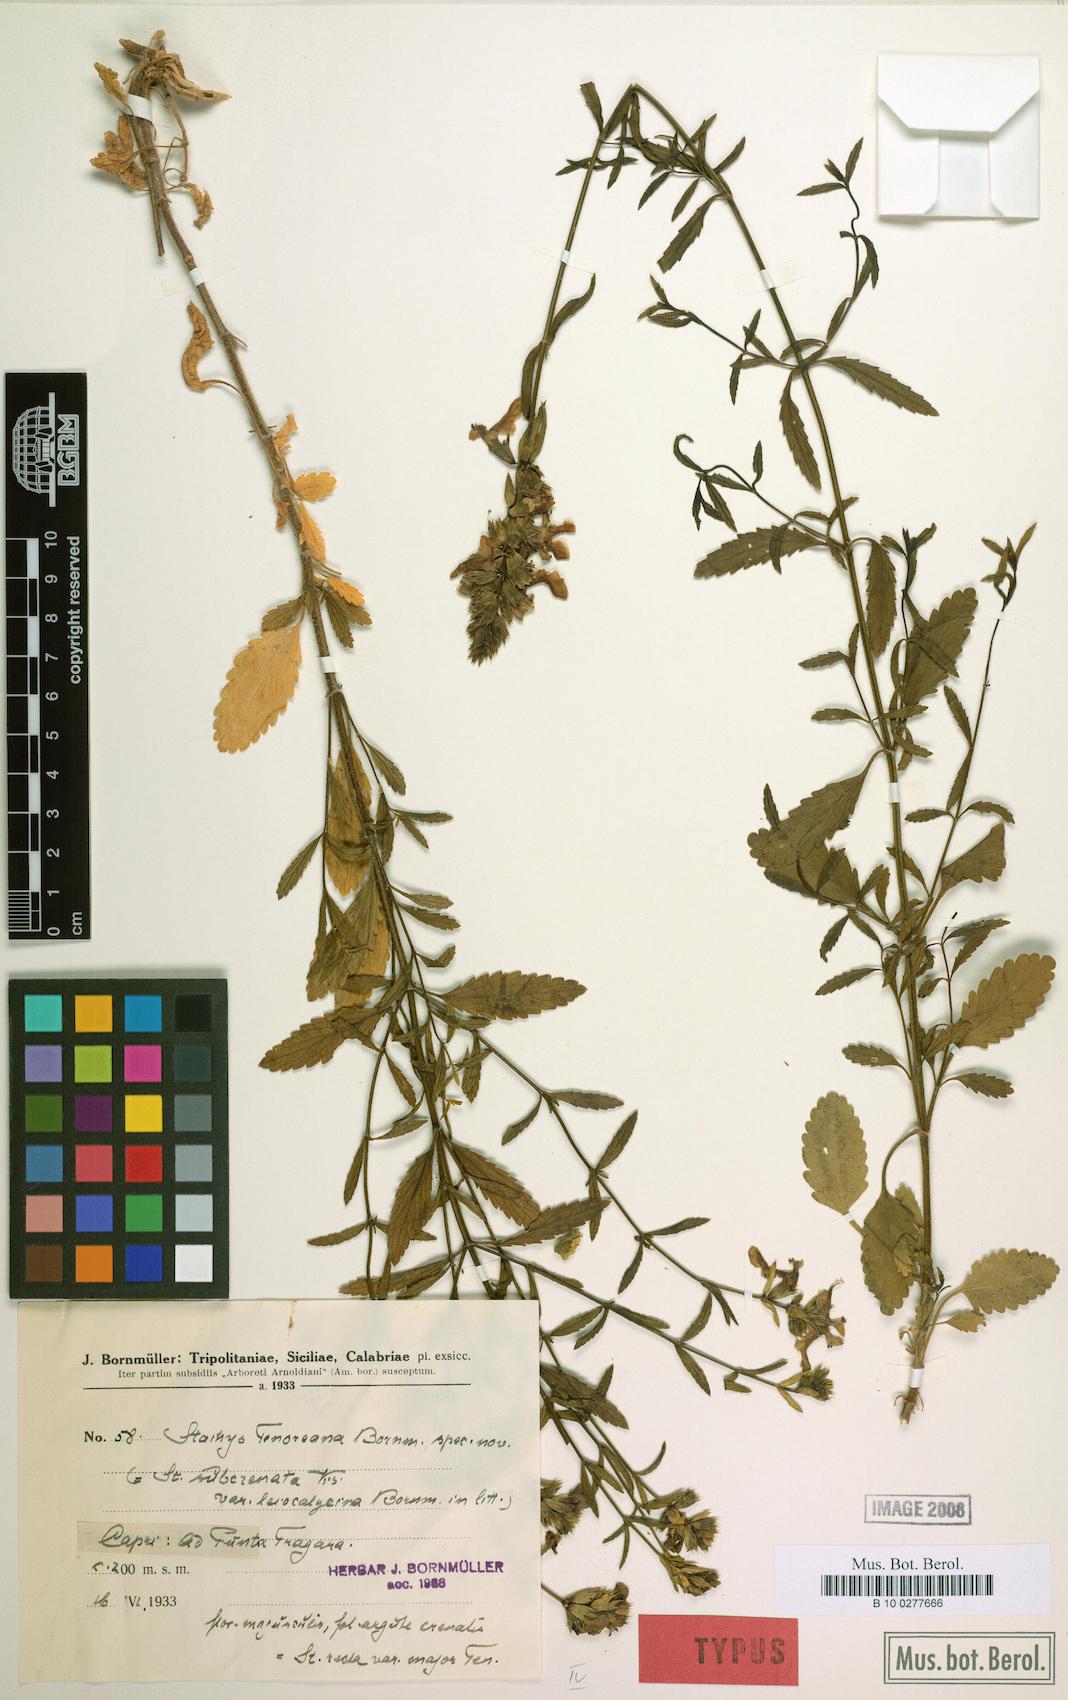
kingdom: Plantae
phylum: Tracheophyta
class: Magnoliopsida
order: Lamiales
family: Lamiaceae
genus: Stachys
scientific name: Stachys recta
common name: Perennial yellow-woundwort
